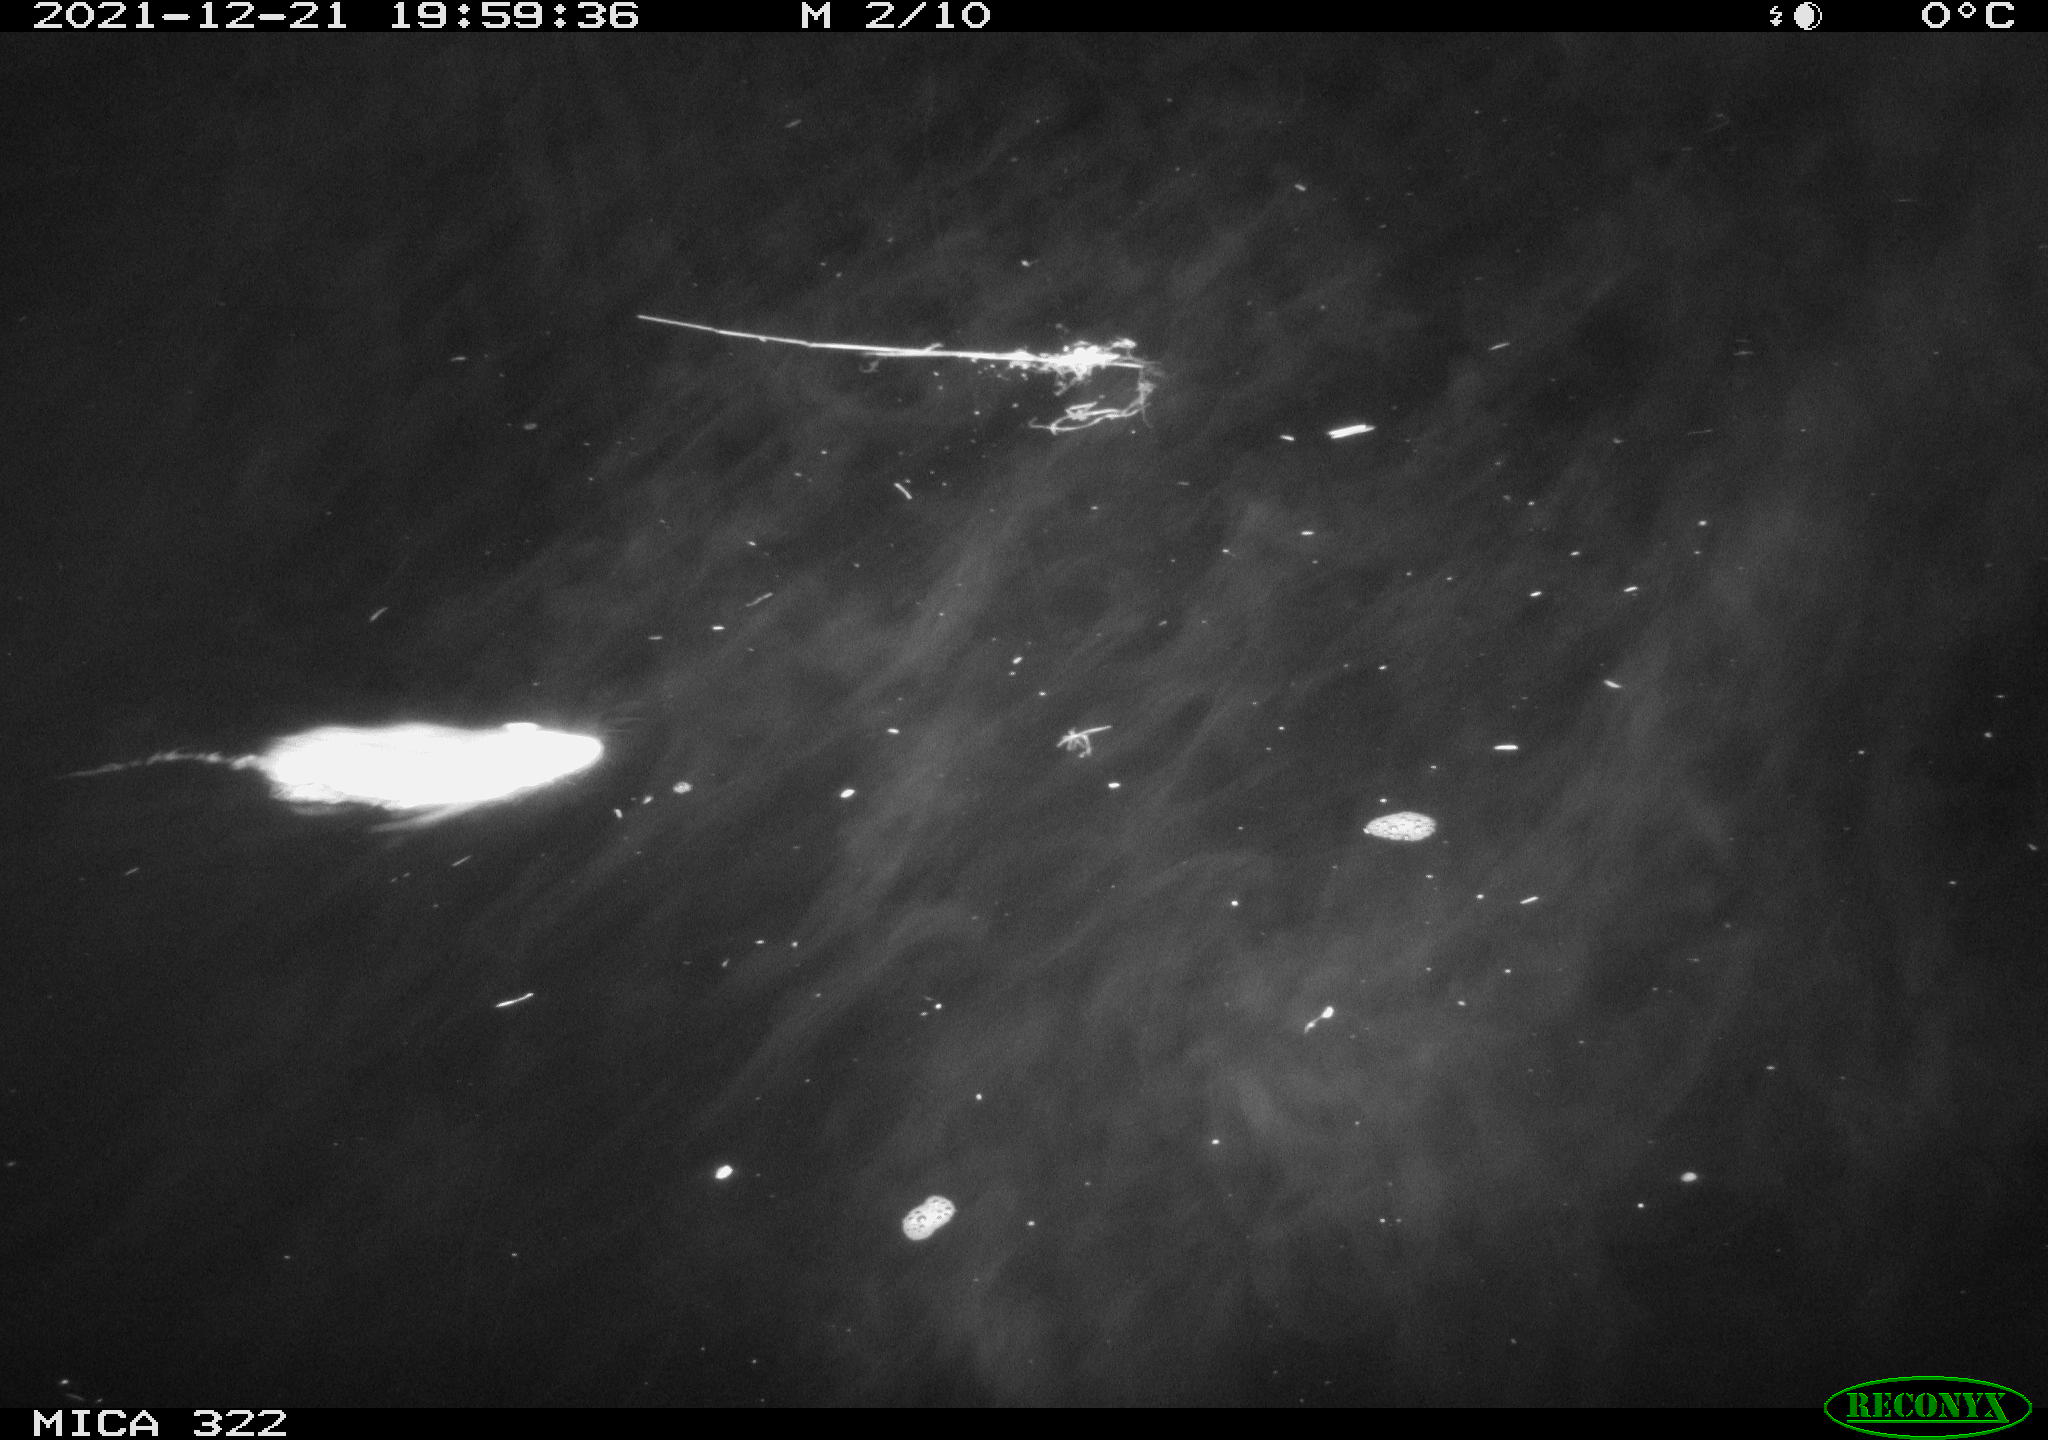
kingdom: Animalia
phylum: Chordata
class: Mammalia
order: Rodentia
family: Muridae
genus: Rattus
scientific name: Rattus norvegicus
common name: Brown rat
